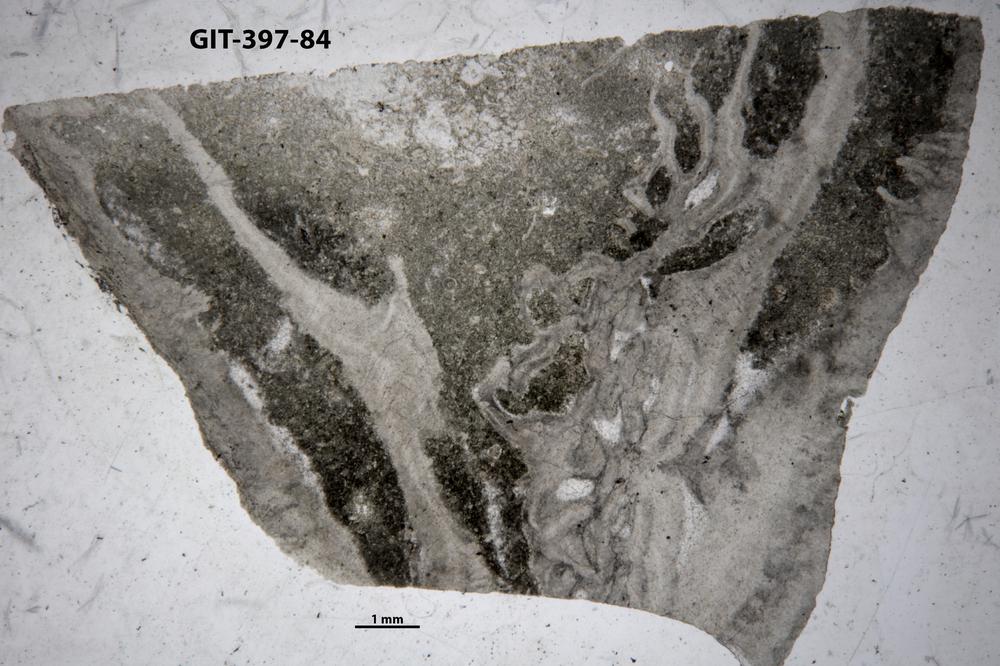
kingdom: Animalia
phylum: Cnidaria
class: Anthozoa
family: Streptelasmatidae
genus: Rhegmaphyllum
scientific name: Rhegmaphyllum
